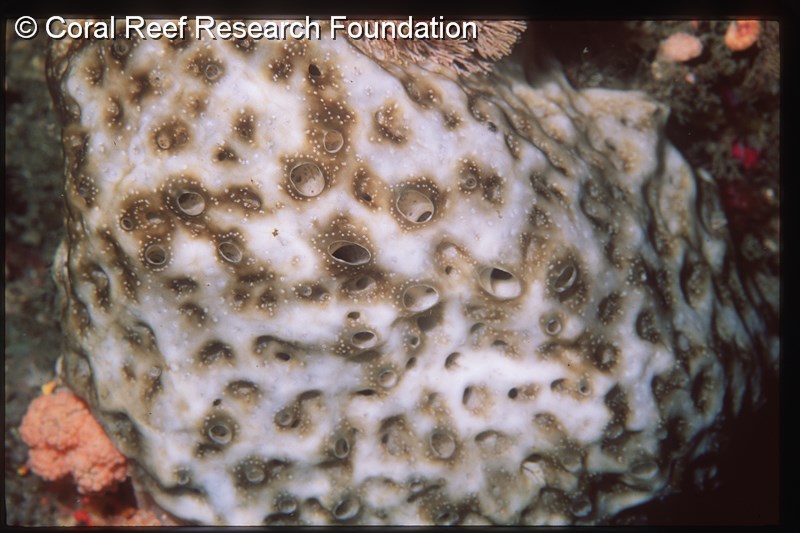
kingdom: Animalia
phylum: Chordata
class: Ascidiacea
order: Aplousobranchia
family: Didemnidae
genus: Trididemnum
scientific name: Trididemnum cerebriforme
